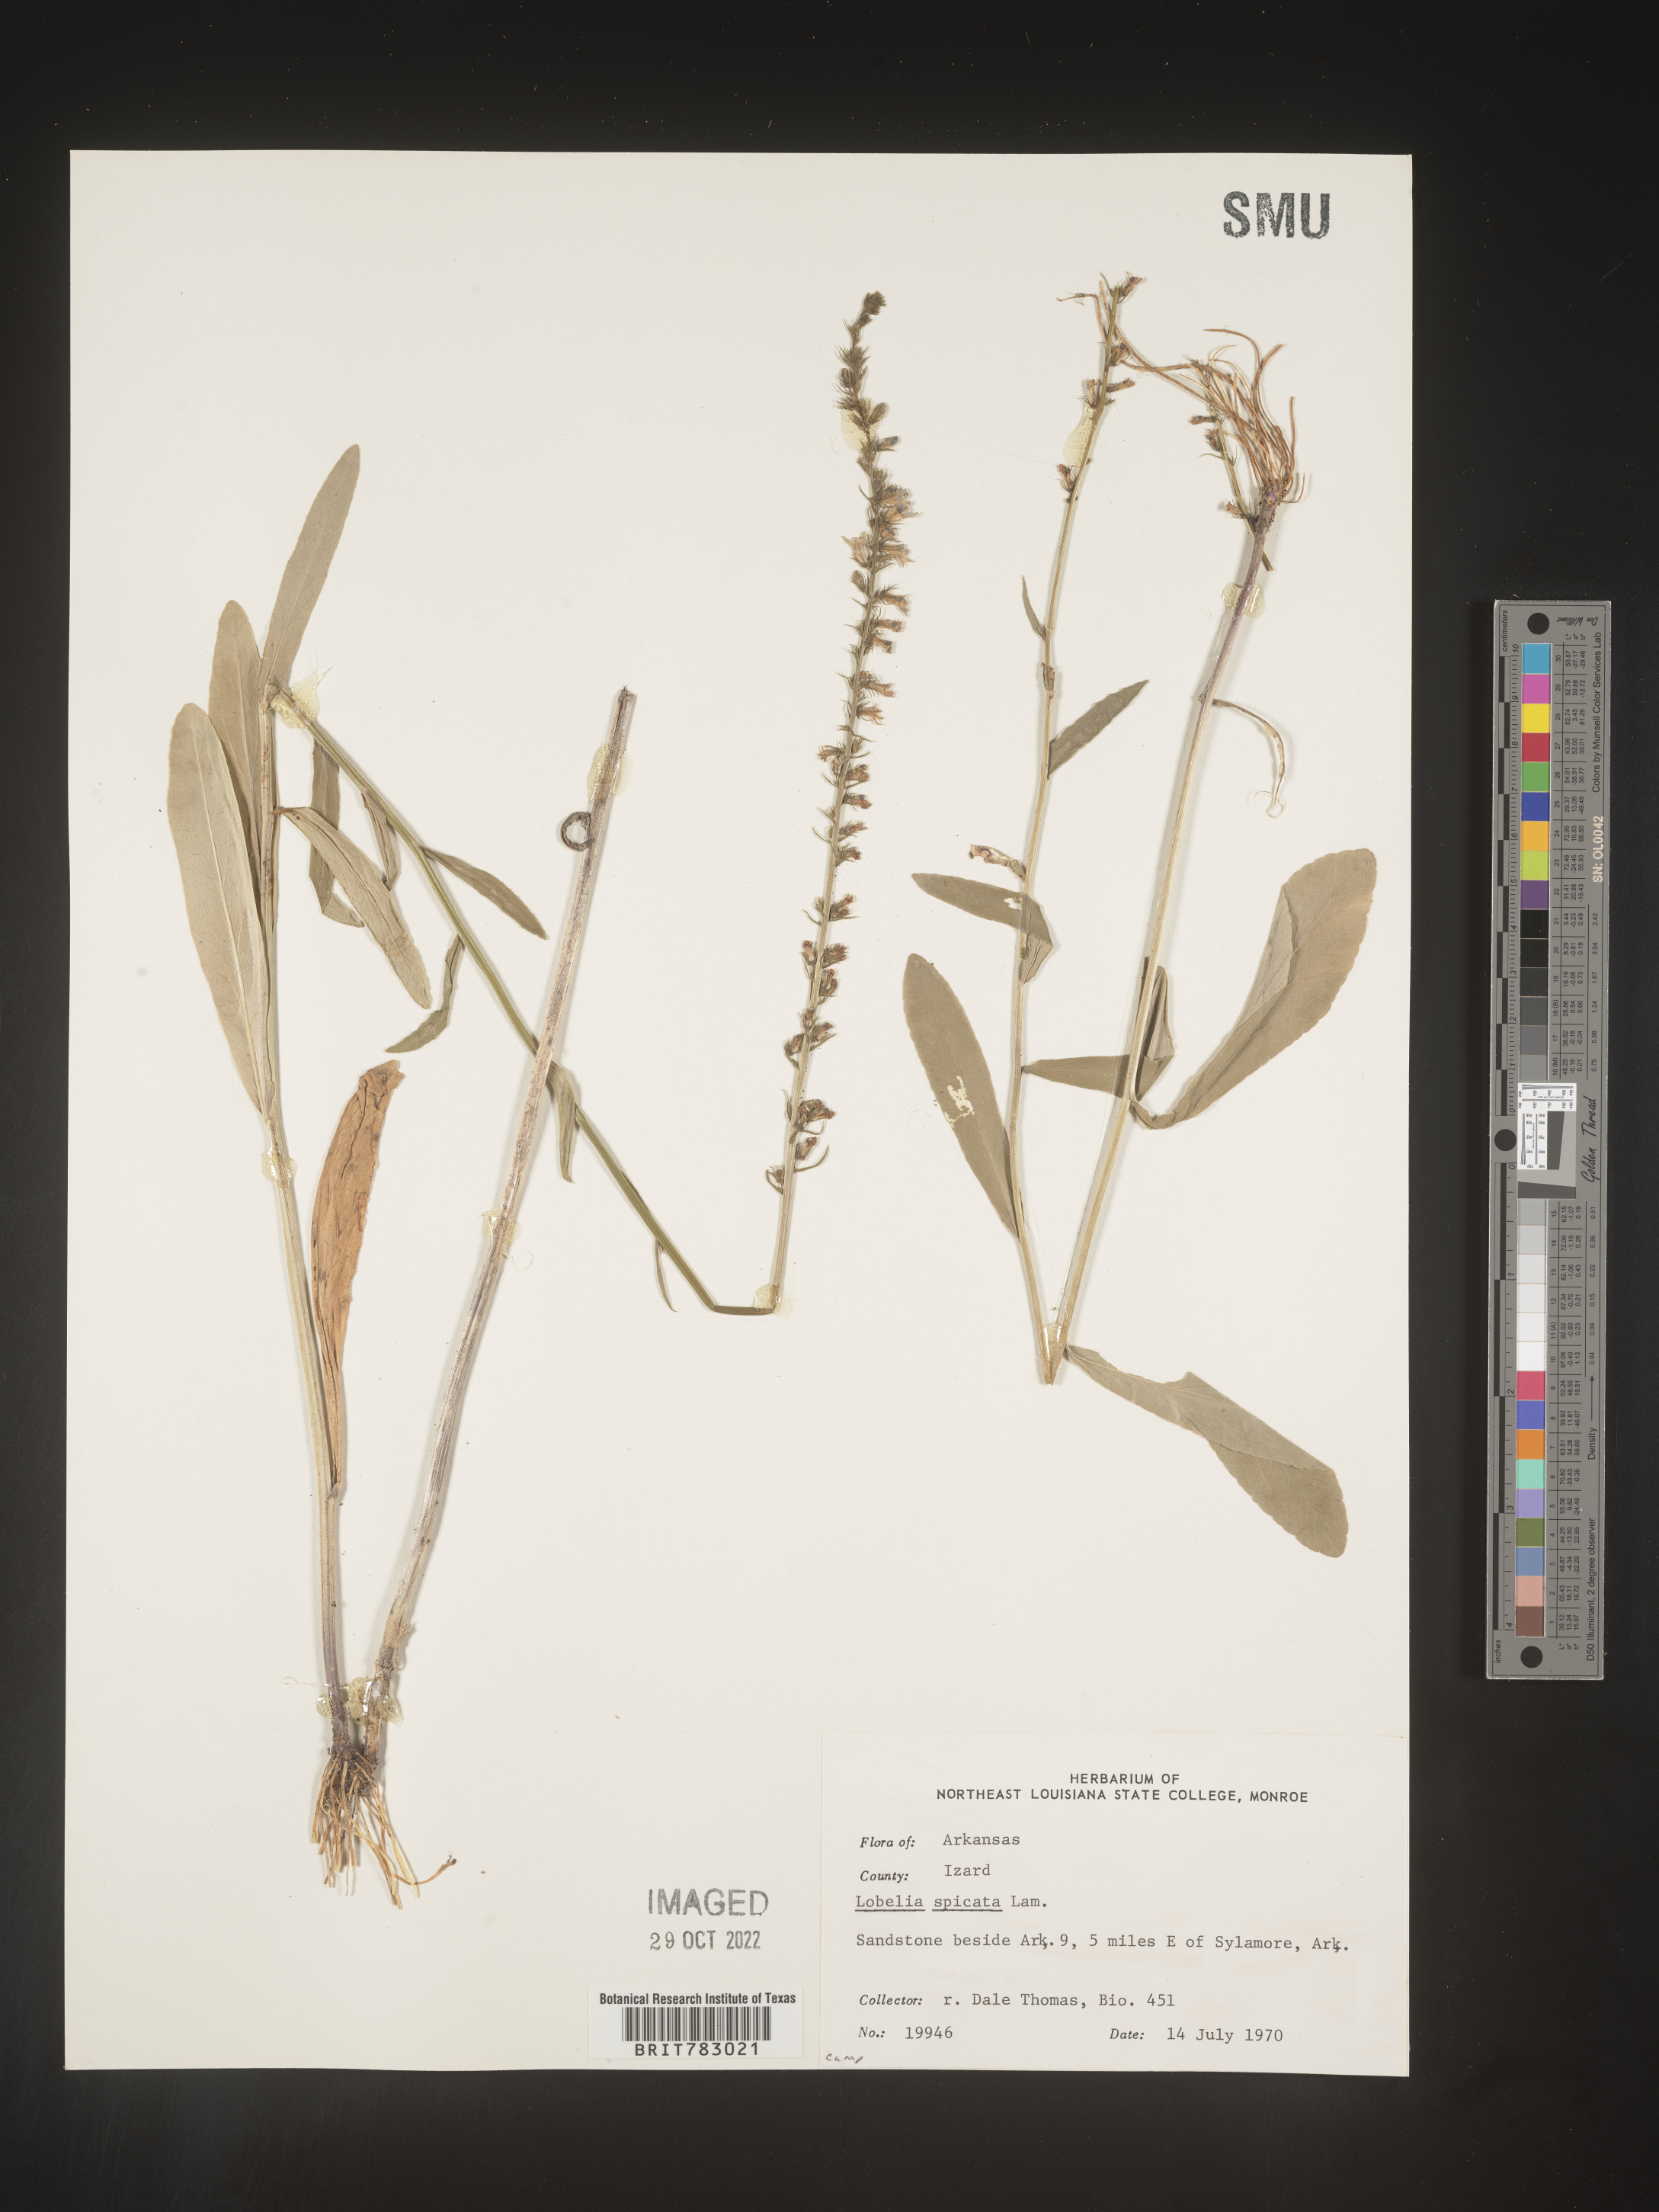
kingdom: Plantae
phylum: Tracheophyta
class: Magnoliopsida
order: Asterales
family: Campanulaceae
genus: Lobelia
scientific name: Lobelia spicata
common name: Pale-spike lobelia
